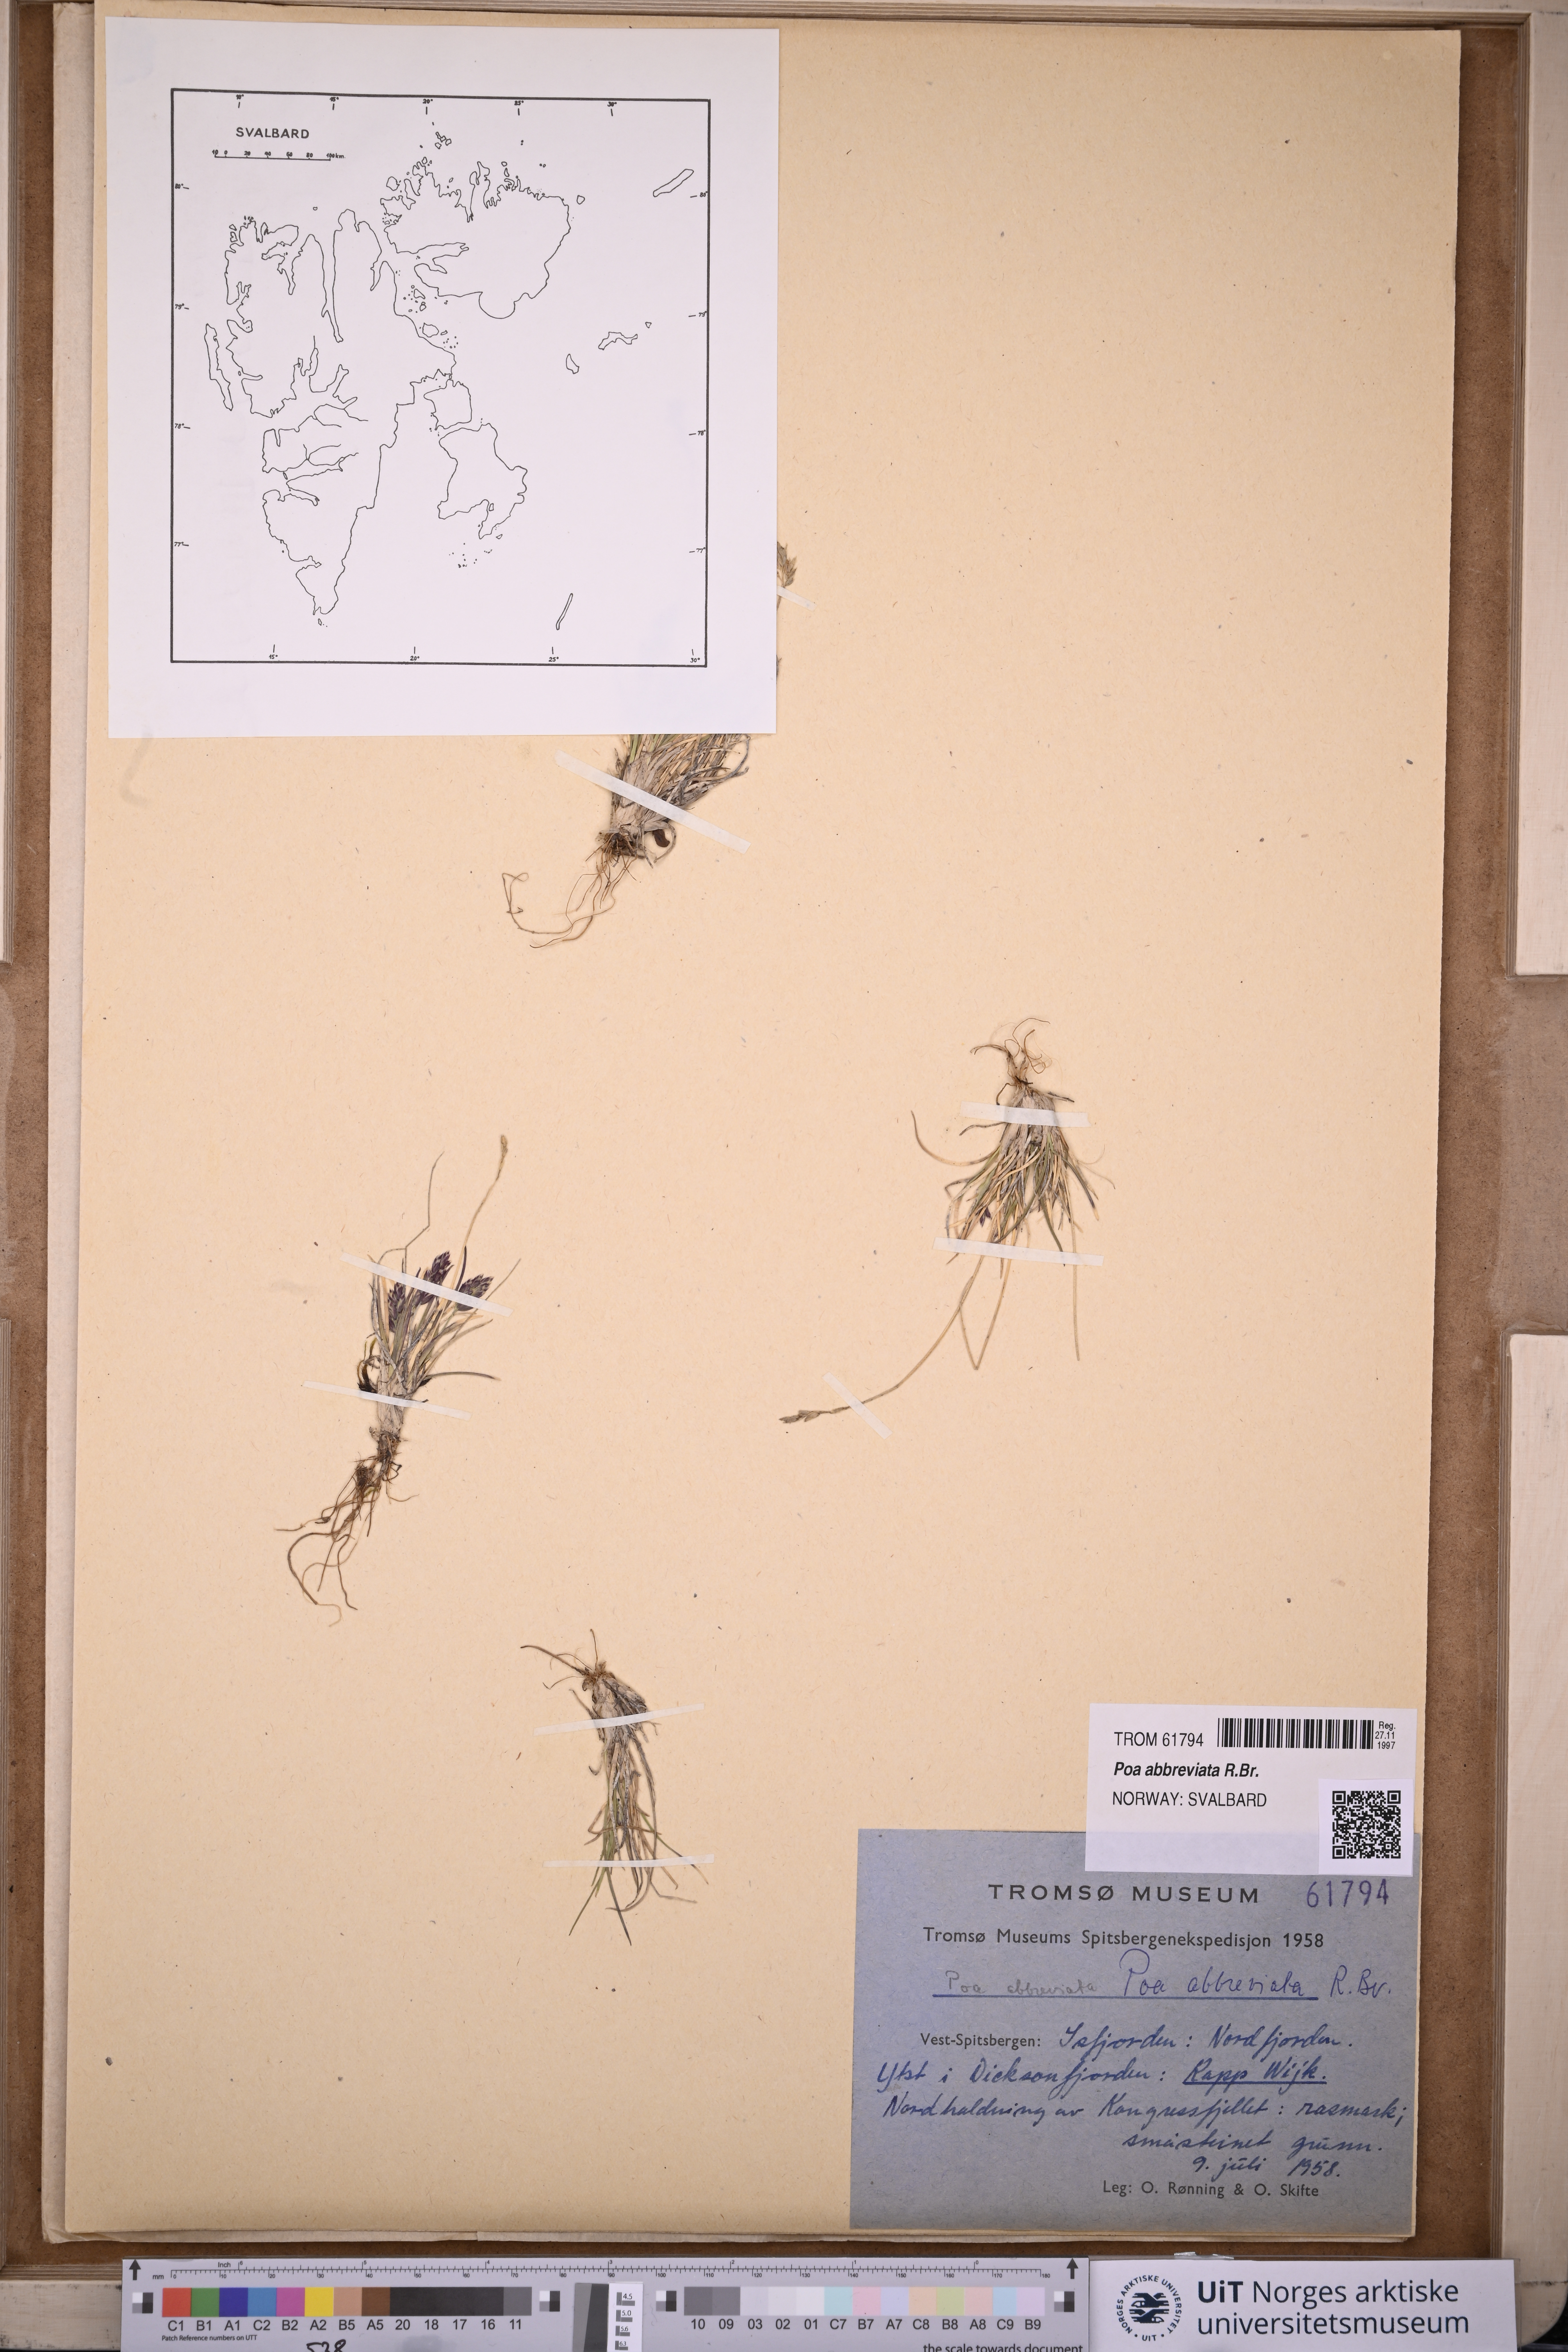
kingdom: Plantae
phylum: Tracheophyta
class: Liliopsida
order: Poales
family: Poaceae
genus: Poa
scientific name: Poa abbreviata
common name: Abbreviated bluegrass
